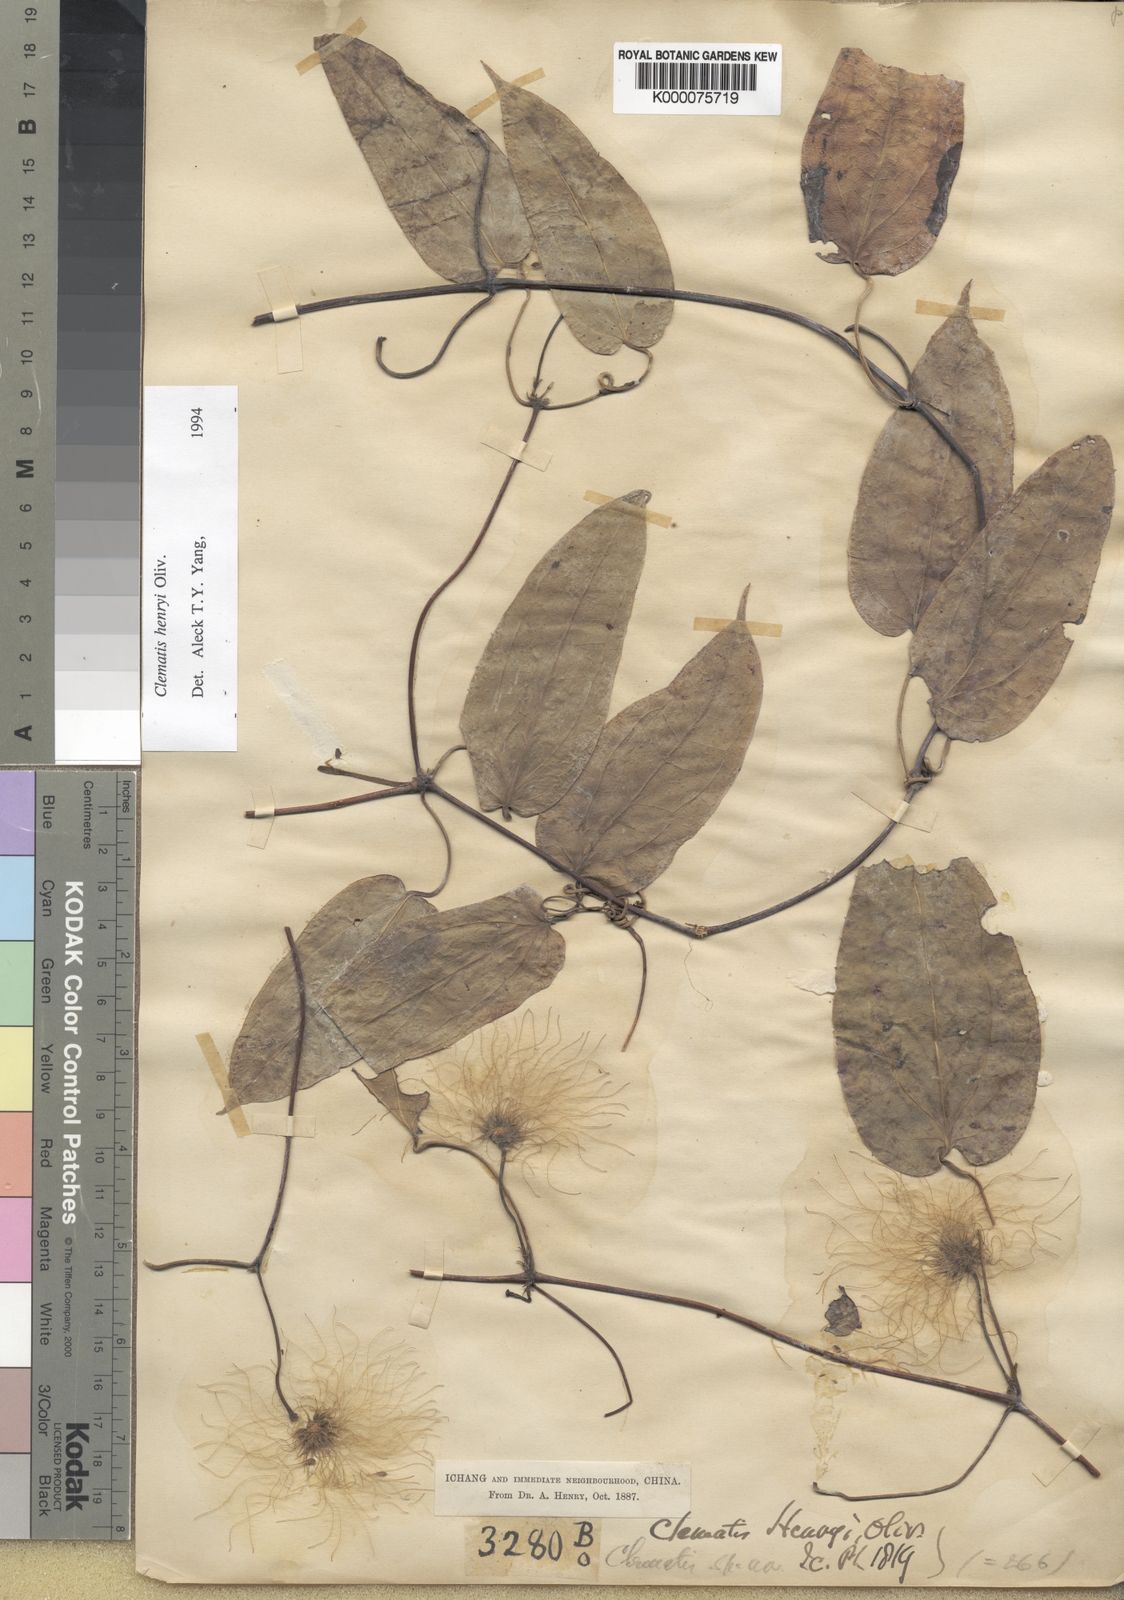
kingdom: Plantae
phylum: Tracheophyta
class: Magnoliopsida
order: Ranunculales
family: Ranunculaceae
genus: Clematis
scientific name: Clematis hayatae
